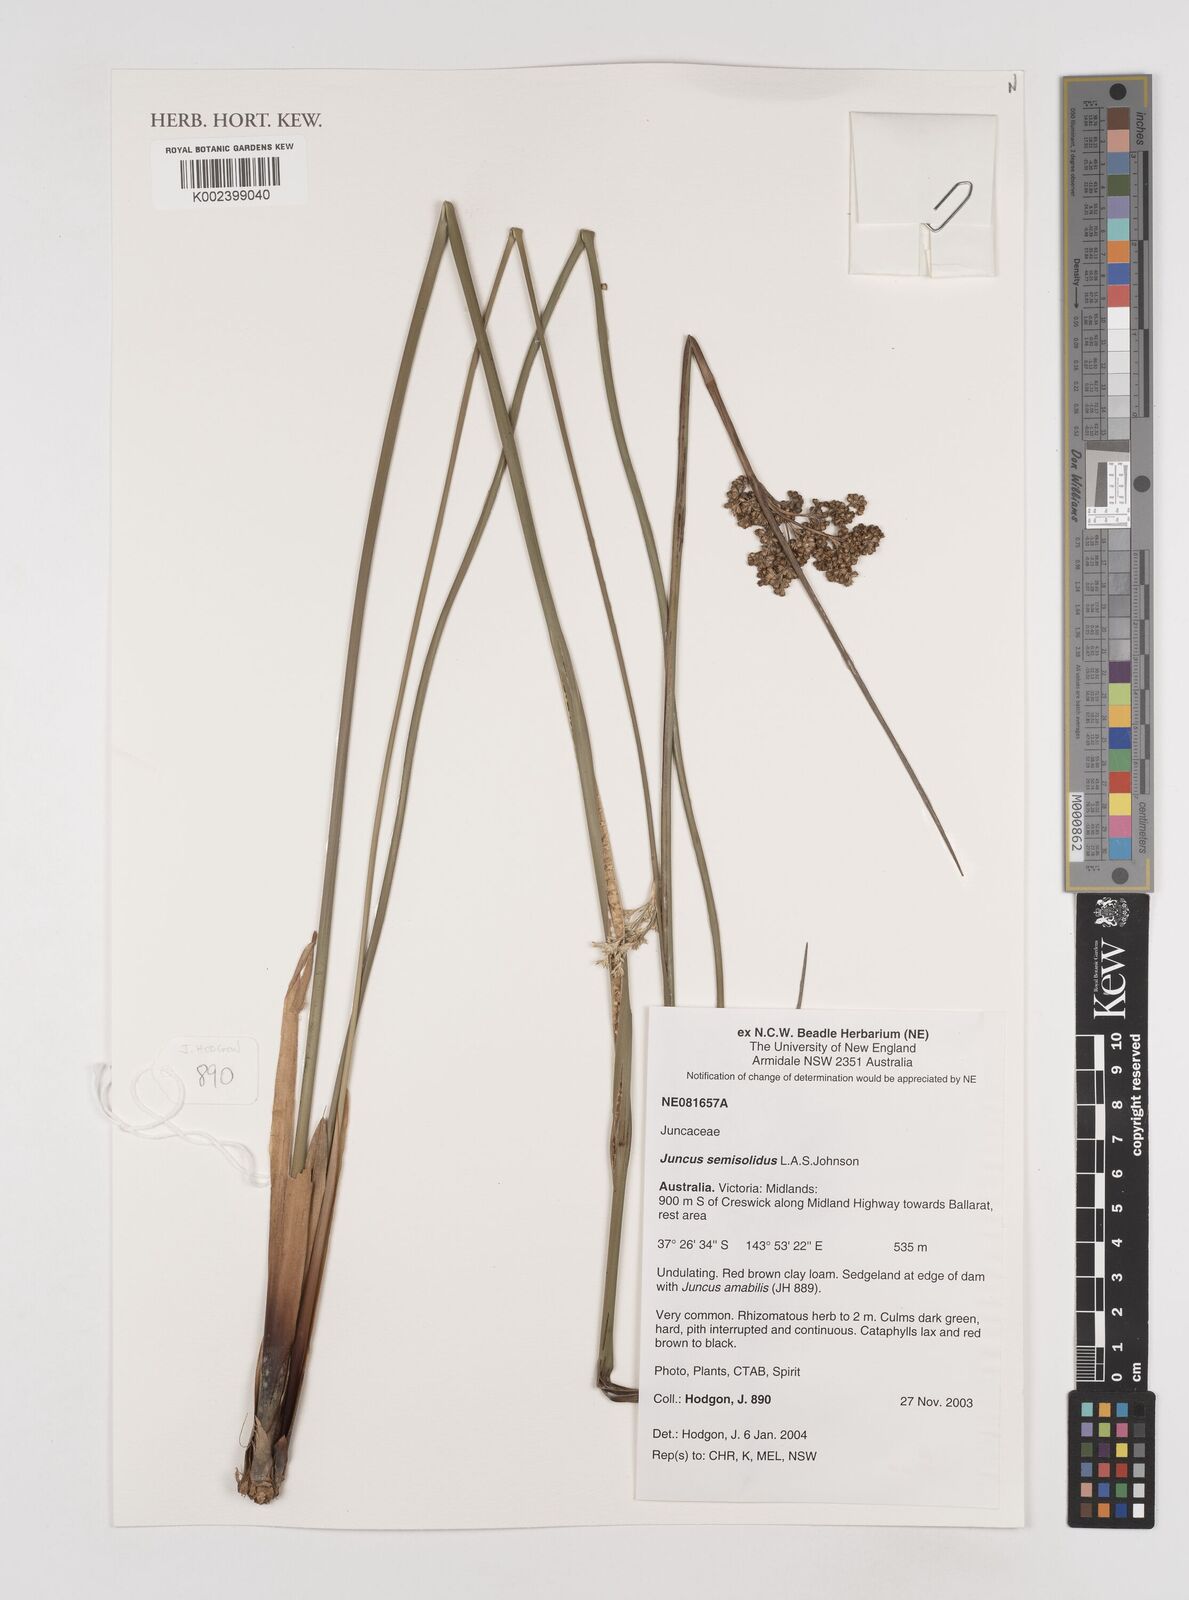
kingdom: Plantae
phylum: Tracheophyta
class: Liliopsida
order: Poales
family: Juncaceae
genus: Juncus
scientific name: Juncus semisolidus
